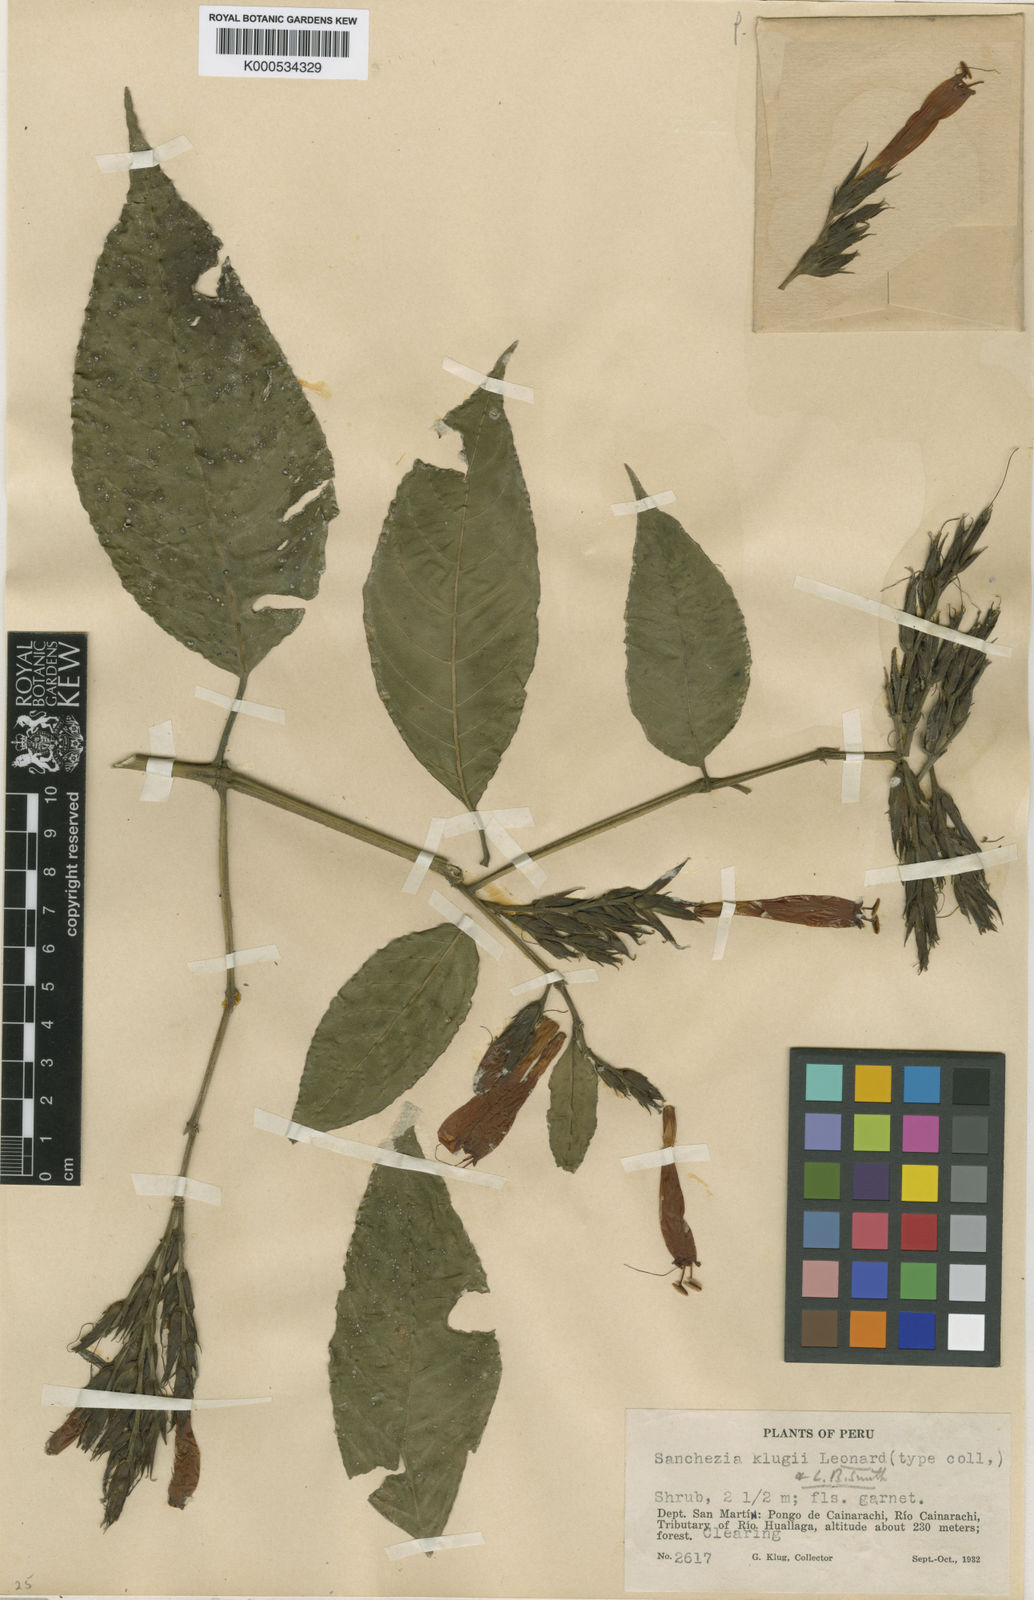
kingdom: Plantae
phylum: Tracheophyta
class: Magnoliopsida
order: Lamiales
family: Acanthaceae
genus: Sanchezia
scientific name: Sanchezia klugii
